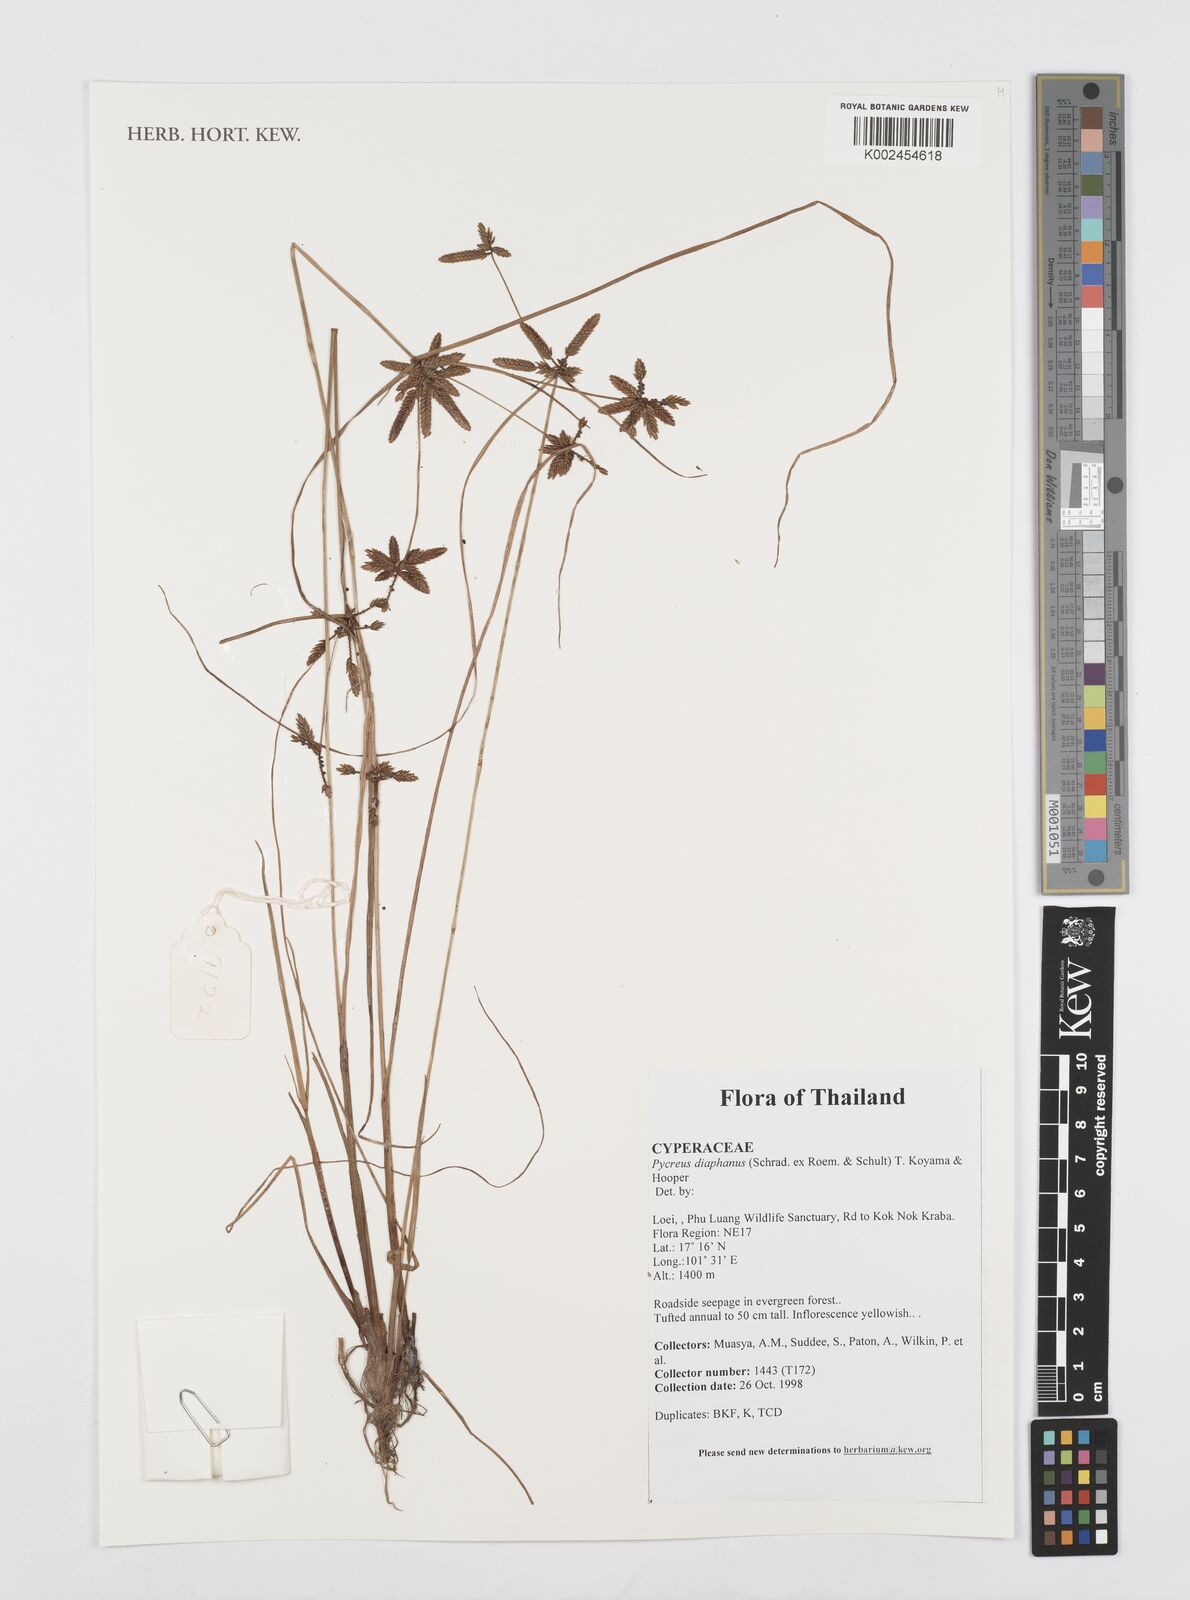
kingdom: Plantae
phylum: Tracheophyta
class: Liliopsida
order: Poales
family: Cyperaceae
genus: Cyperus
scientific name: Cyperus diaphanus
